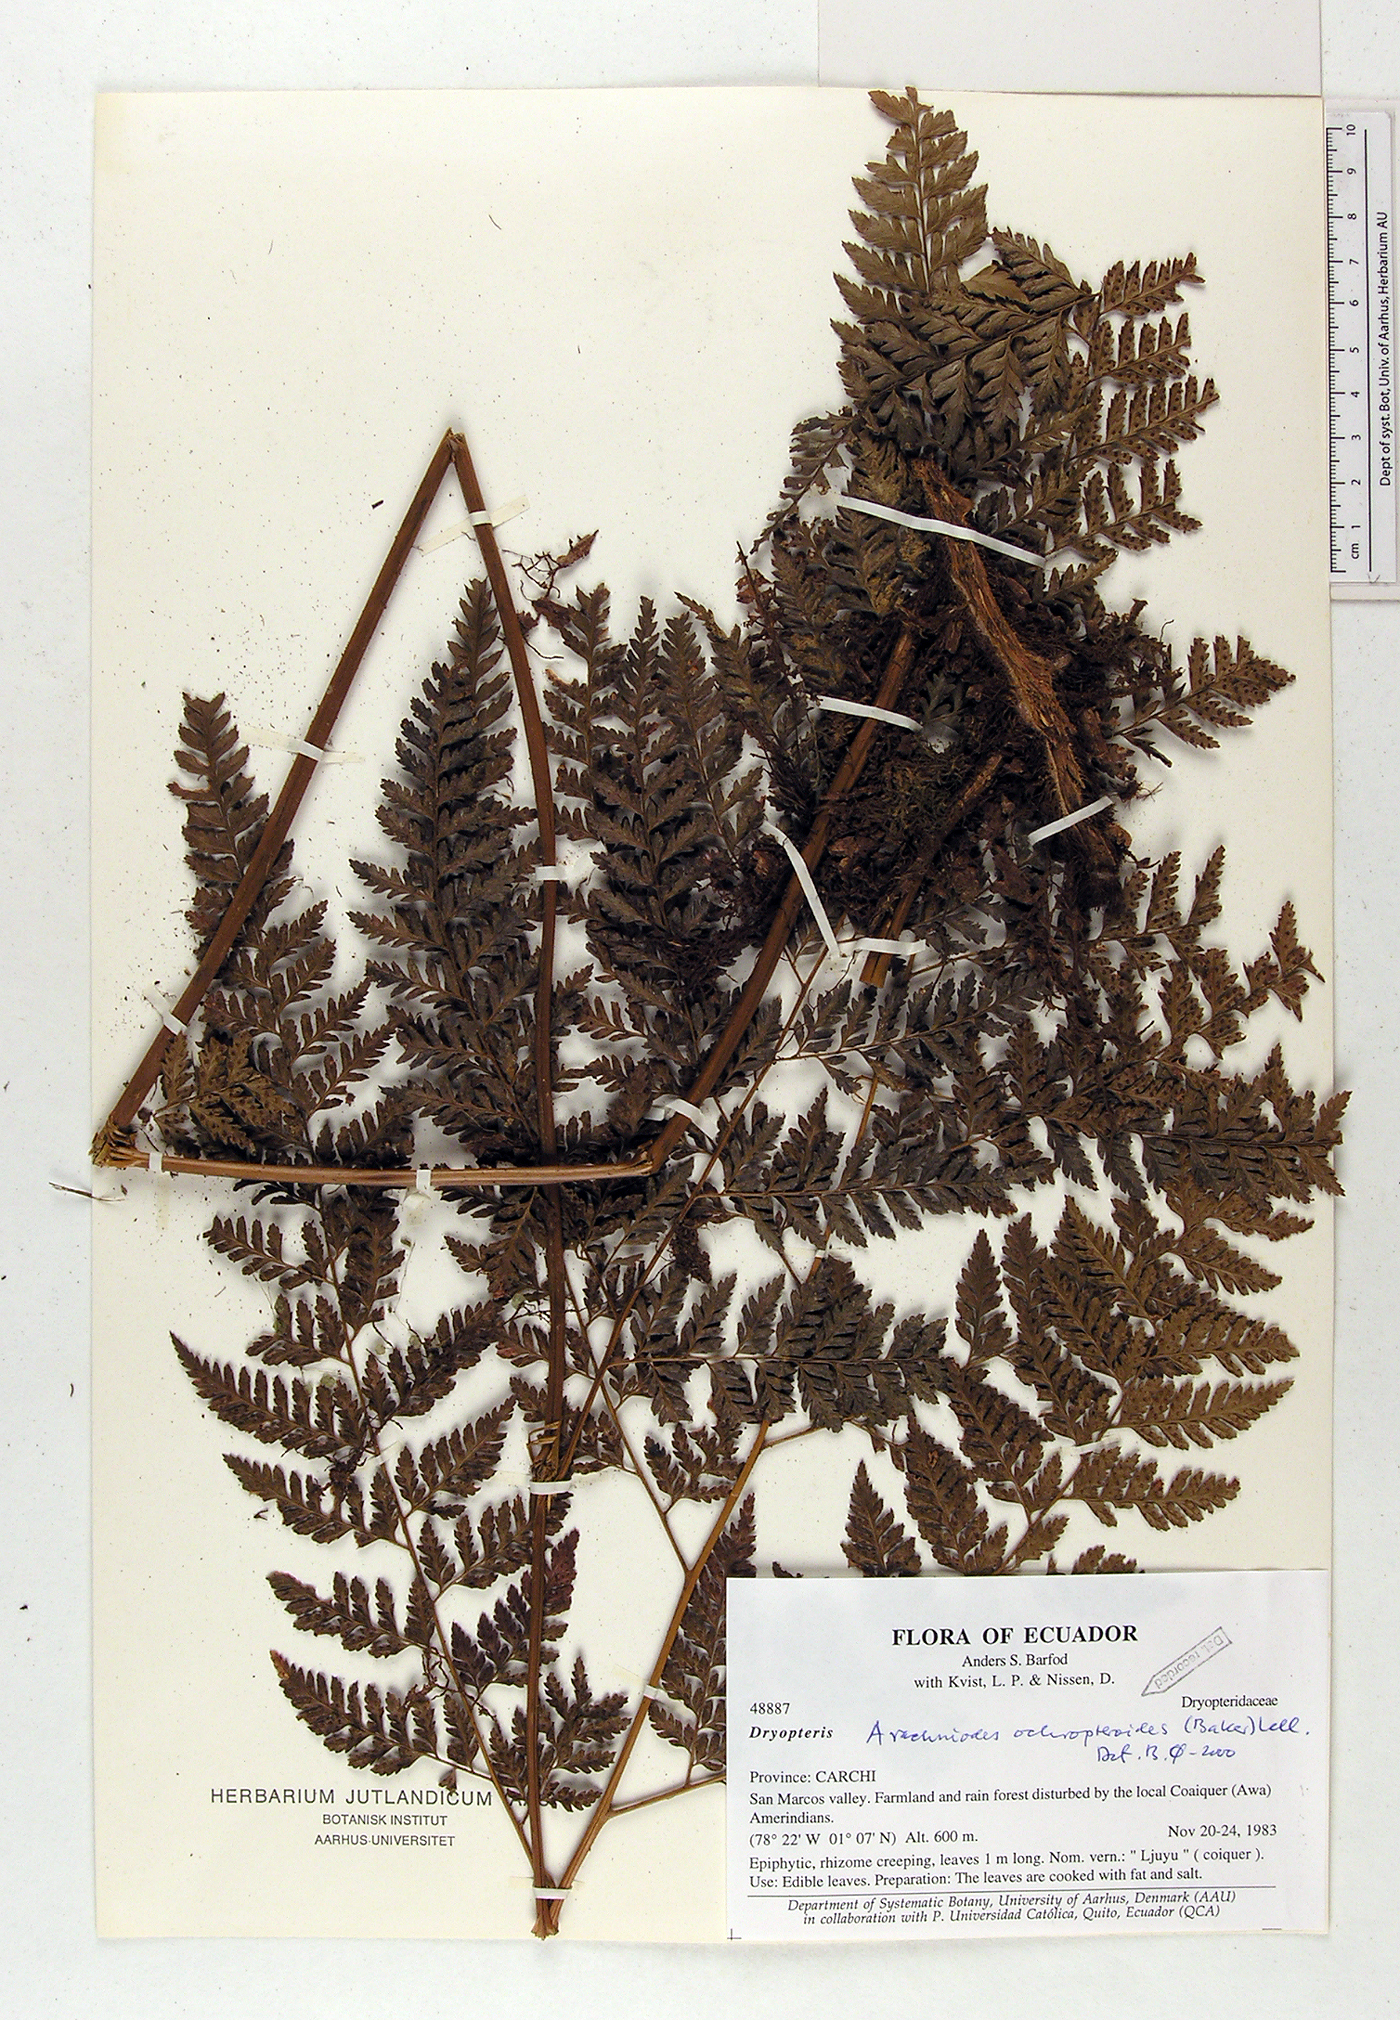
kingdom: Plantae
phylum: Tracheophyta
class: Polypodiopsida
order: Polypodiales
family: Dryopteridaceae
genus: Olfersia
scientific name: Olfersia ochropteroides
